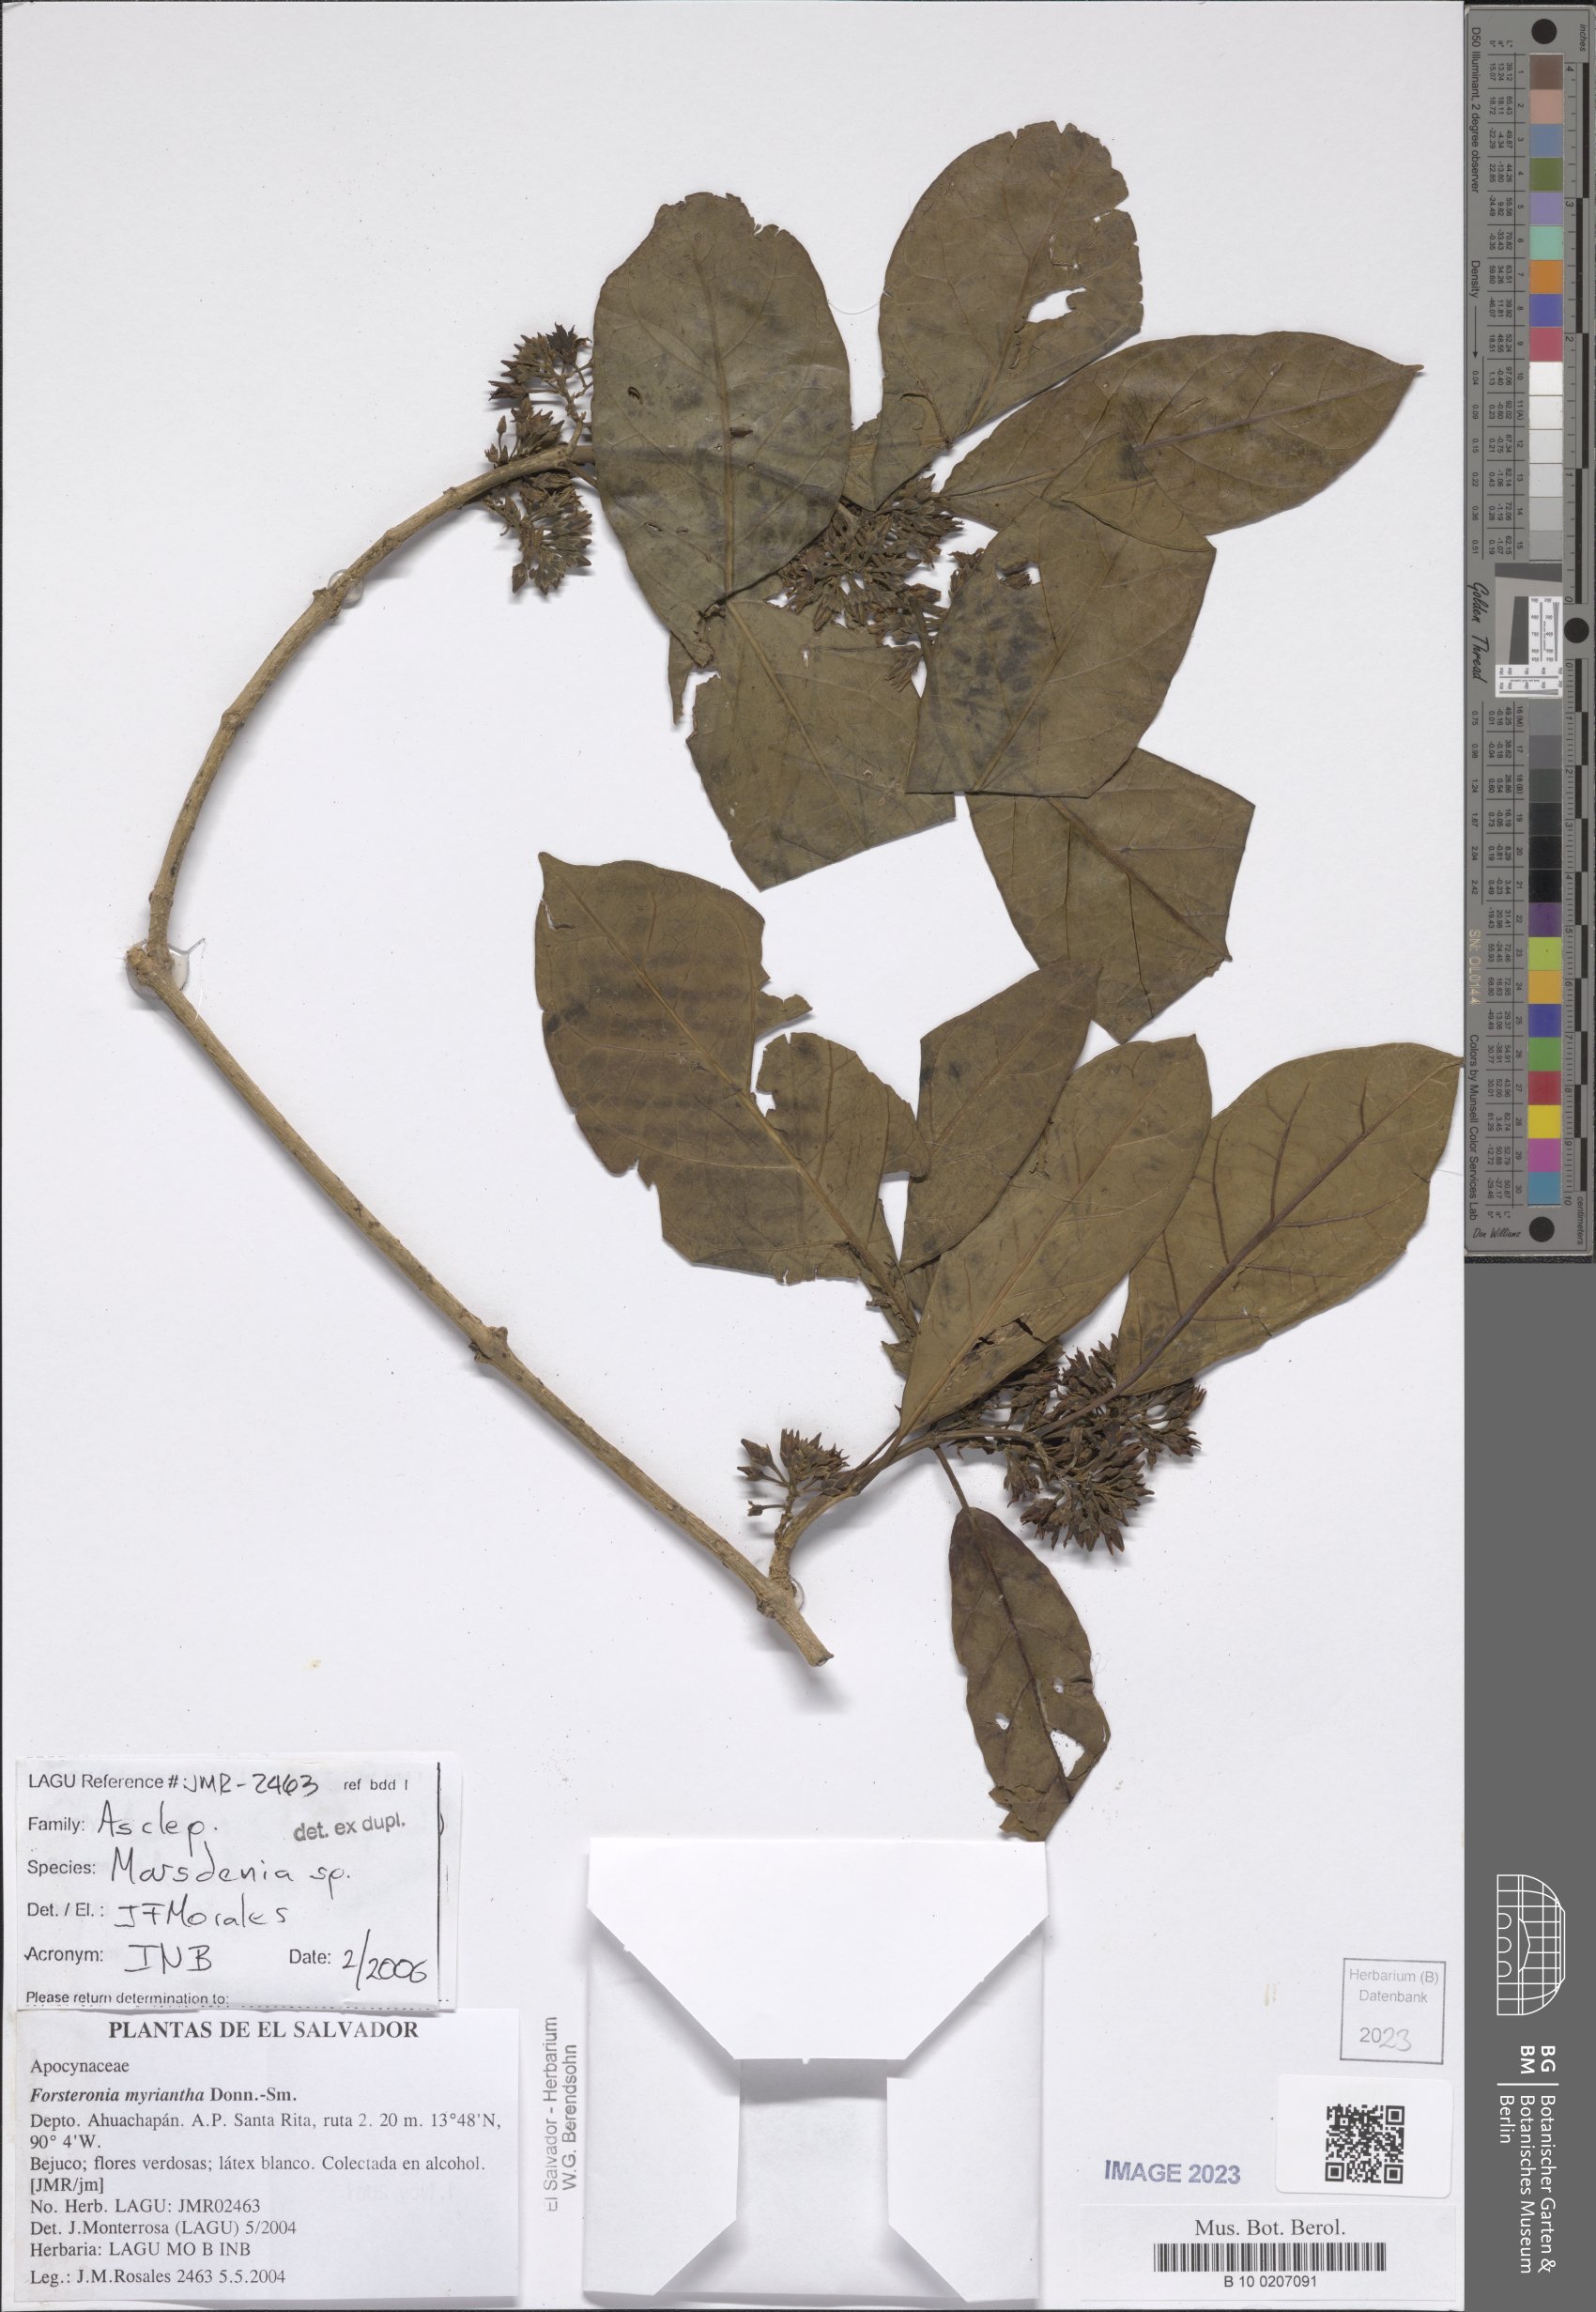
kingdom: Plantae
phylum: Tracheophyta
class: Magnoliopsida
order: Gentianales
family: Apocynaceae
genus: Marsdenia
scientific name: Marsdenia
